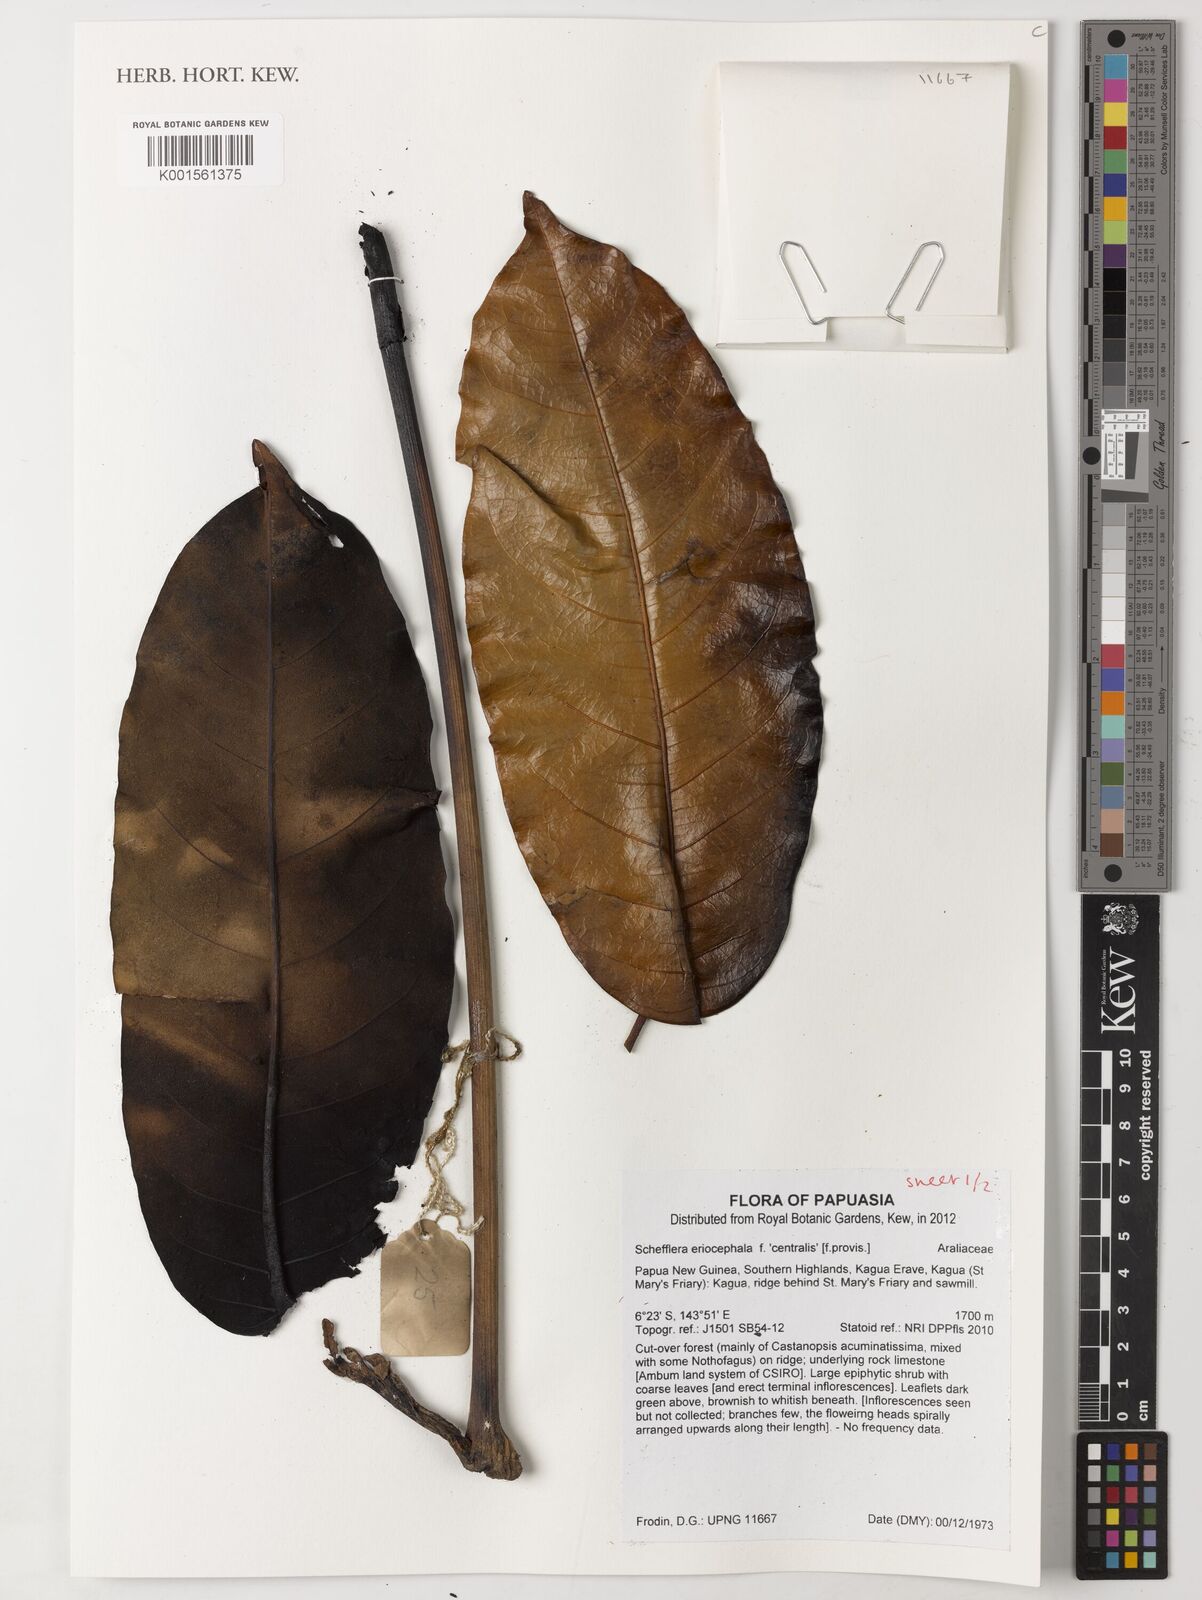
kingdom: Plantae
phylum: Tracheophyta
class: Magnoliopsida
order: Apiales
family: Araliaceae
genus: Schefflera
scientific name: Schefflera
